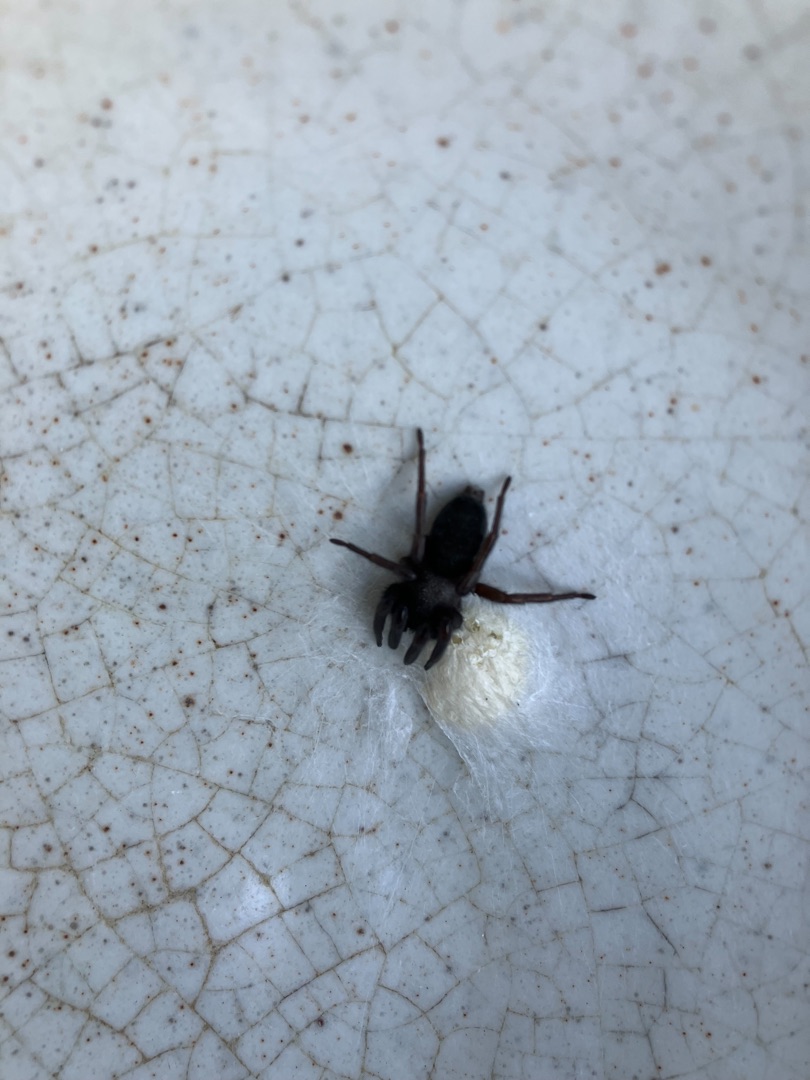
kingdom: Animalia
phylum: Arthropoda
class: Arachnida
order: Araneae
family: Gnaphosidae
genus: Scotophaeus
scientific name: Scotophaeus
